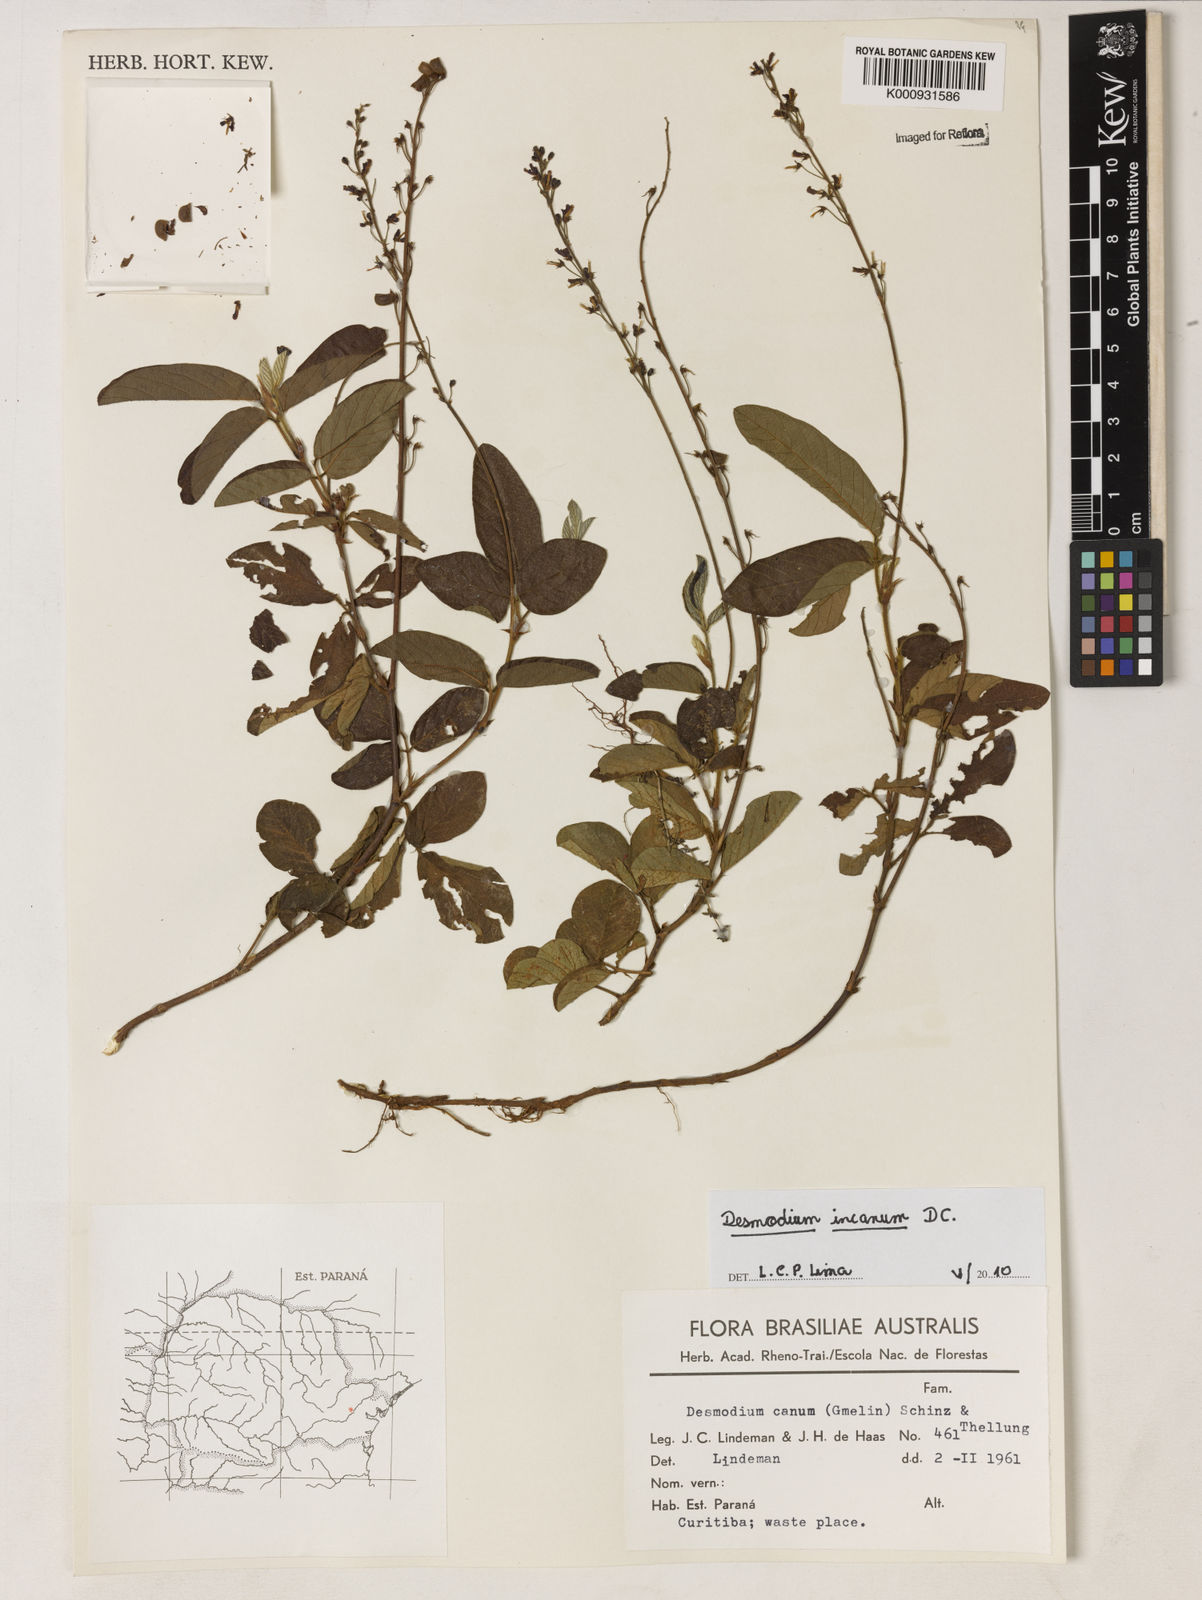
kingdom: Plantae
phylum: Tracheophyta
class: Magnoliopsida
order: Fabales
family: Fabaceae
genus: Desmodium
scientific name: Desmodium incanum
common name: Tickclover
